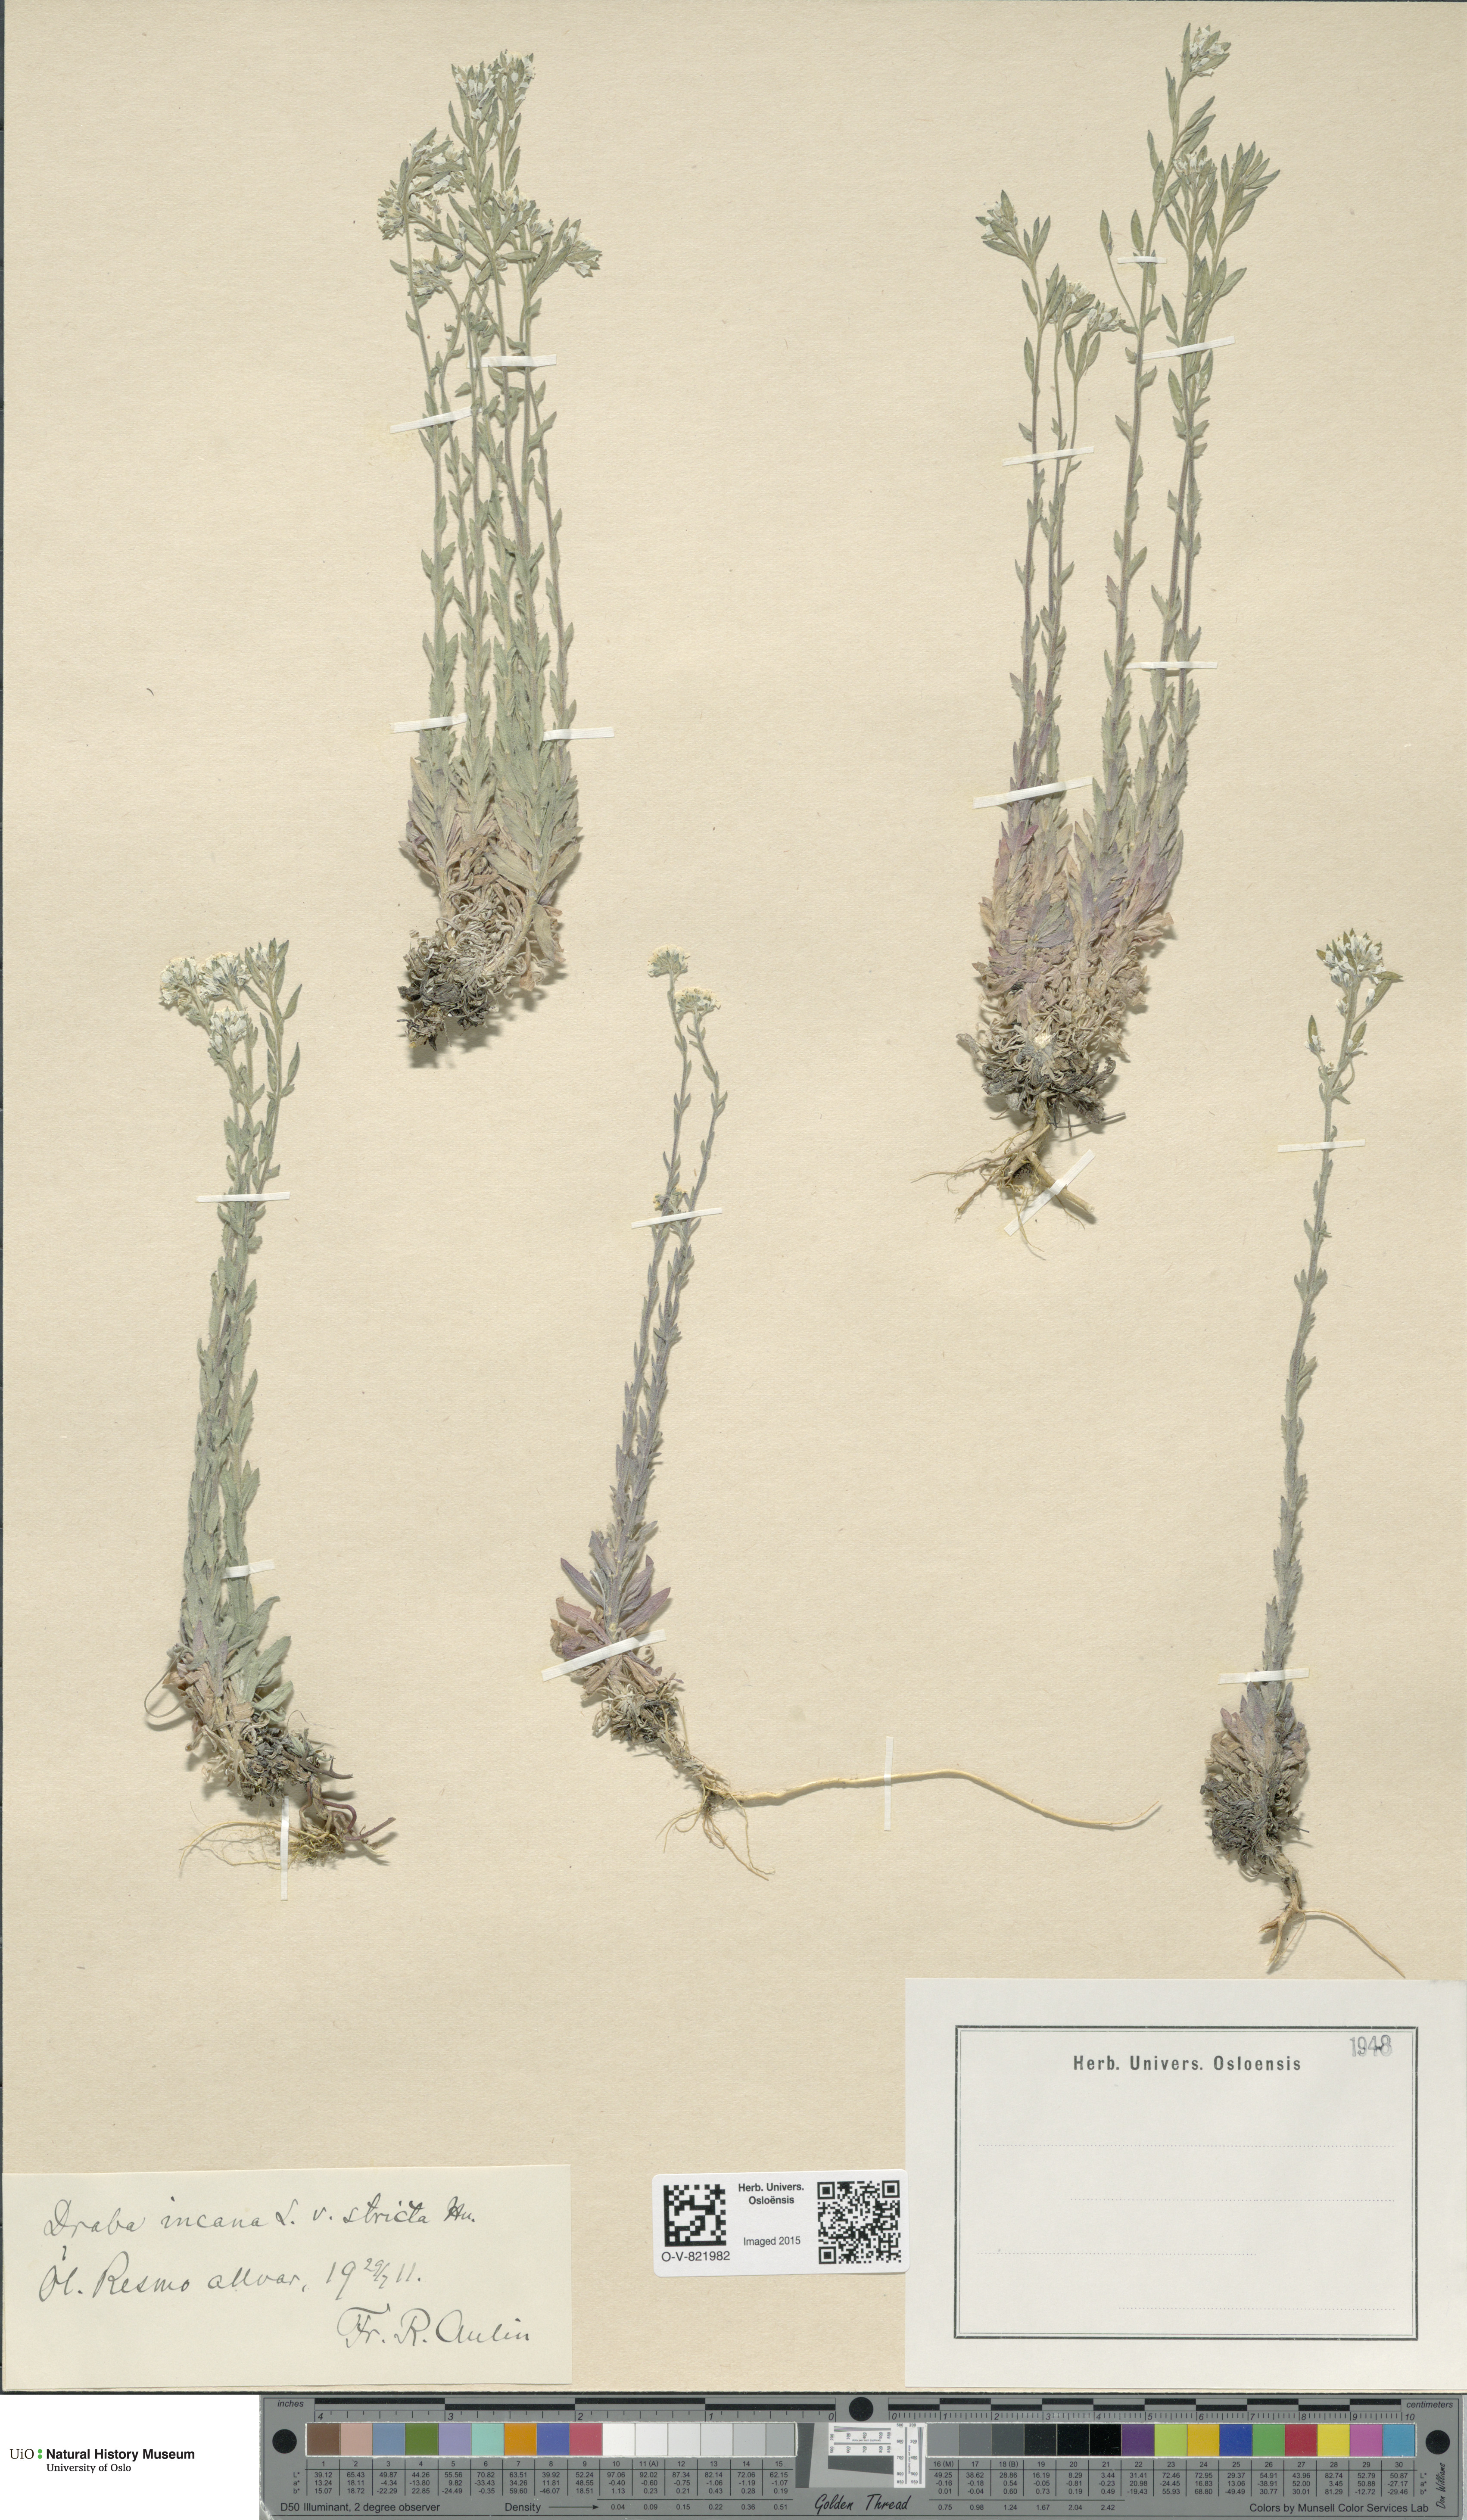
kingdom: Plantae
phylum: Tracheophyta
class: Magnoliopsida
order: Brassicales
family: Brassicaceae
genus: Draba
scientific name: Draba incana
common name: Hoary whitlow-grass
